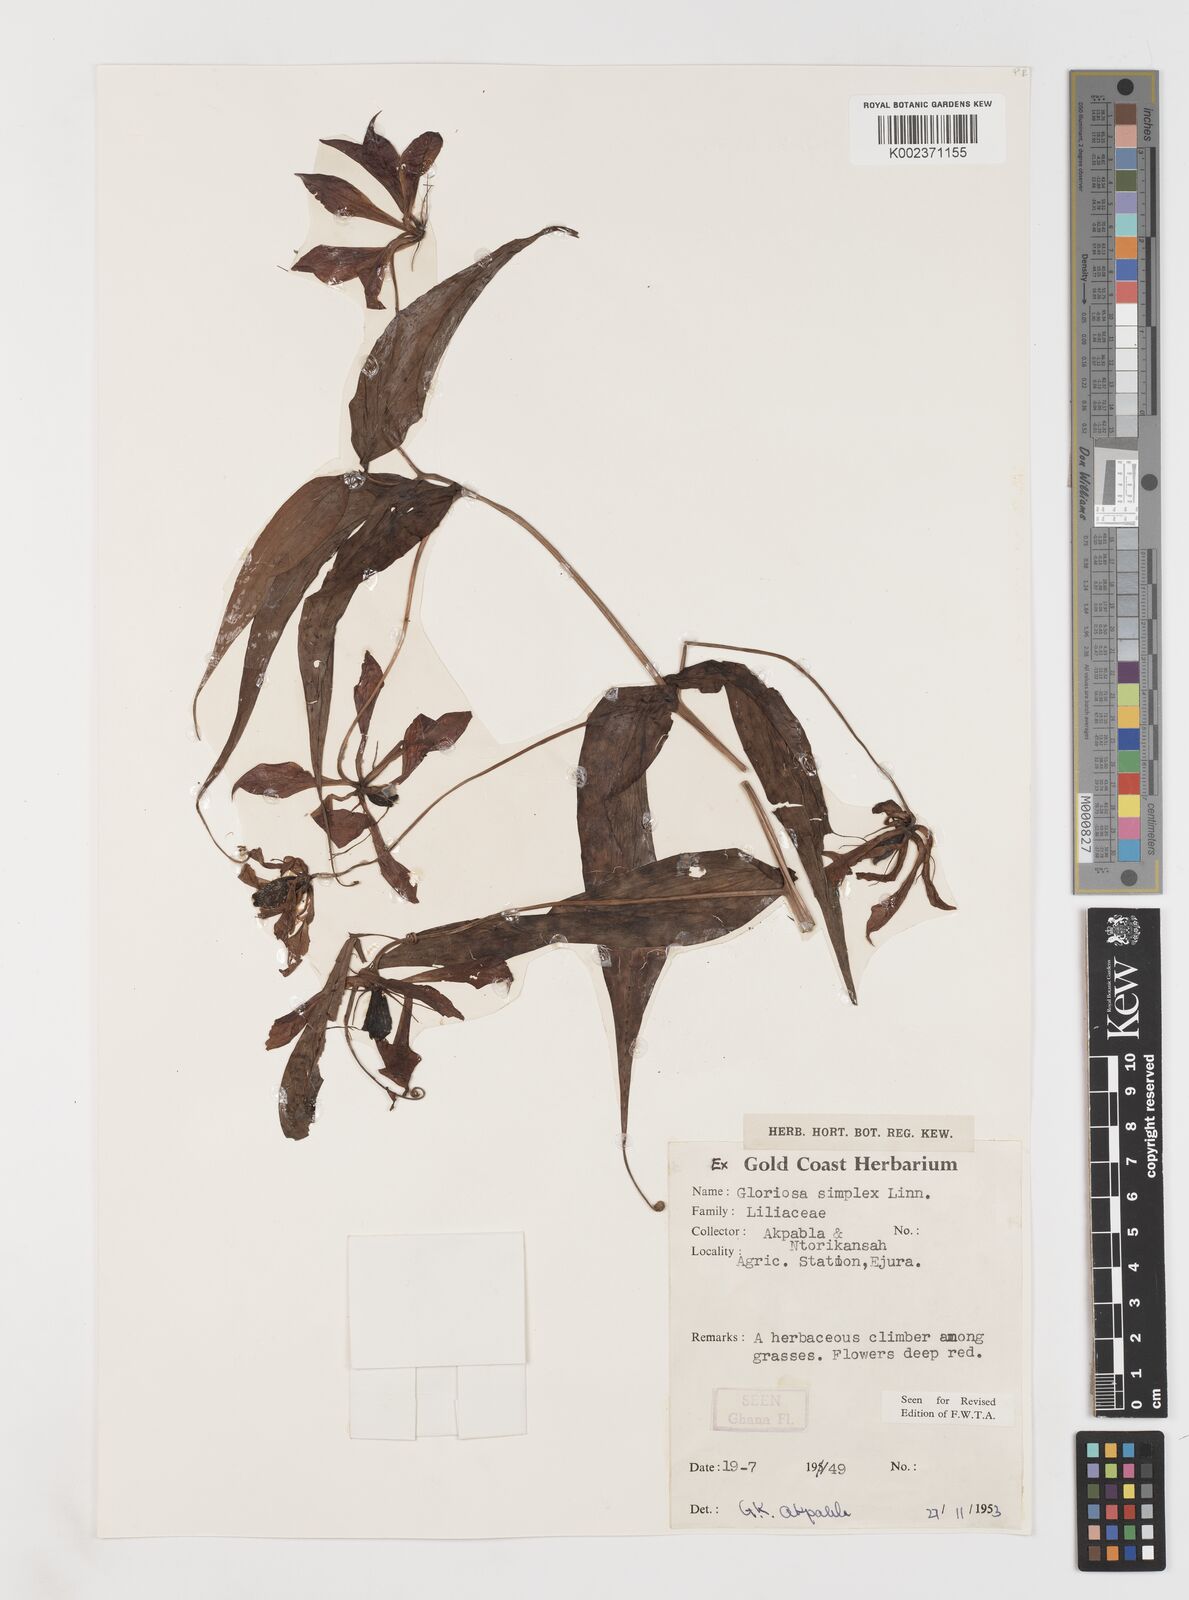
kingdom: Plantae
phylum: Tracheophyta
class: Liliopsida
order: Liliales
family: Colchicaceae
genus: Gloriosa
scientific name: Gloriosa simplex
